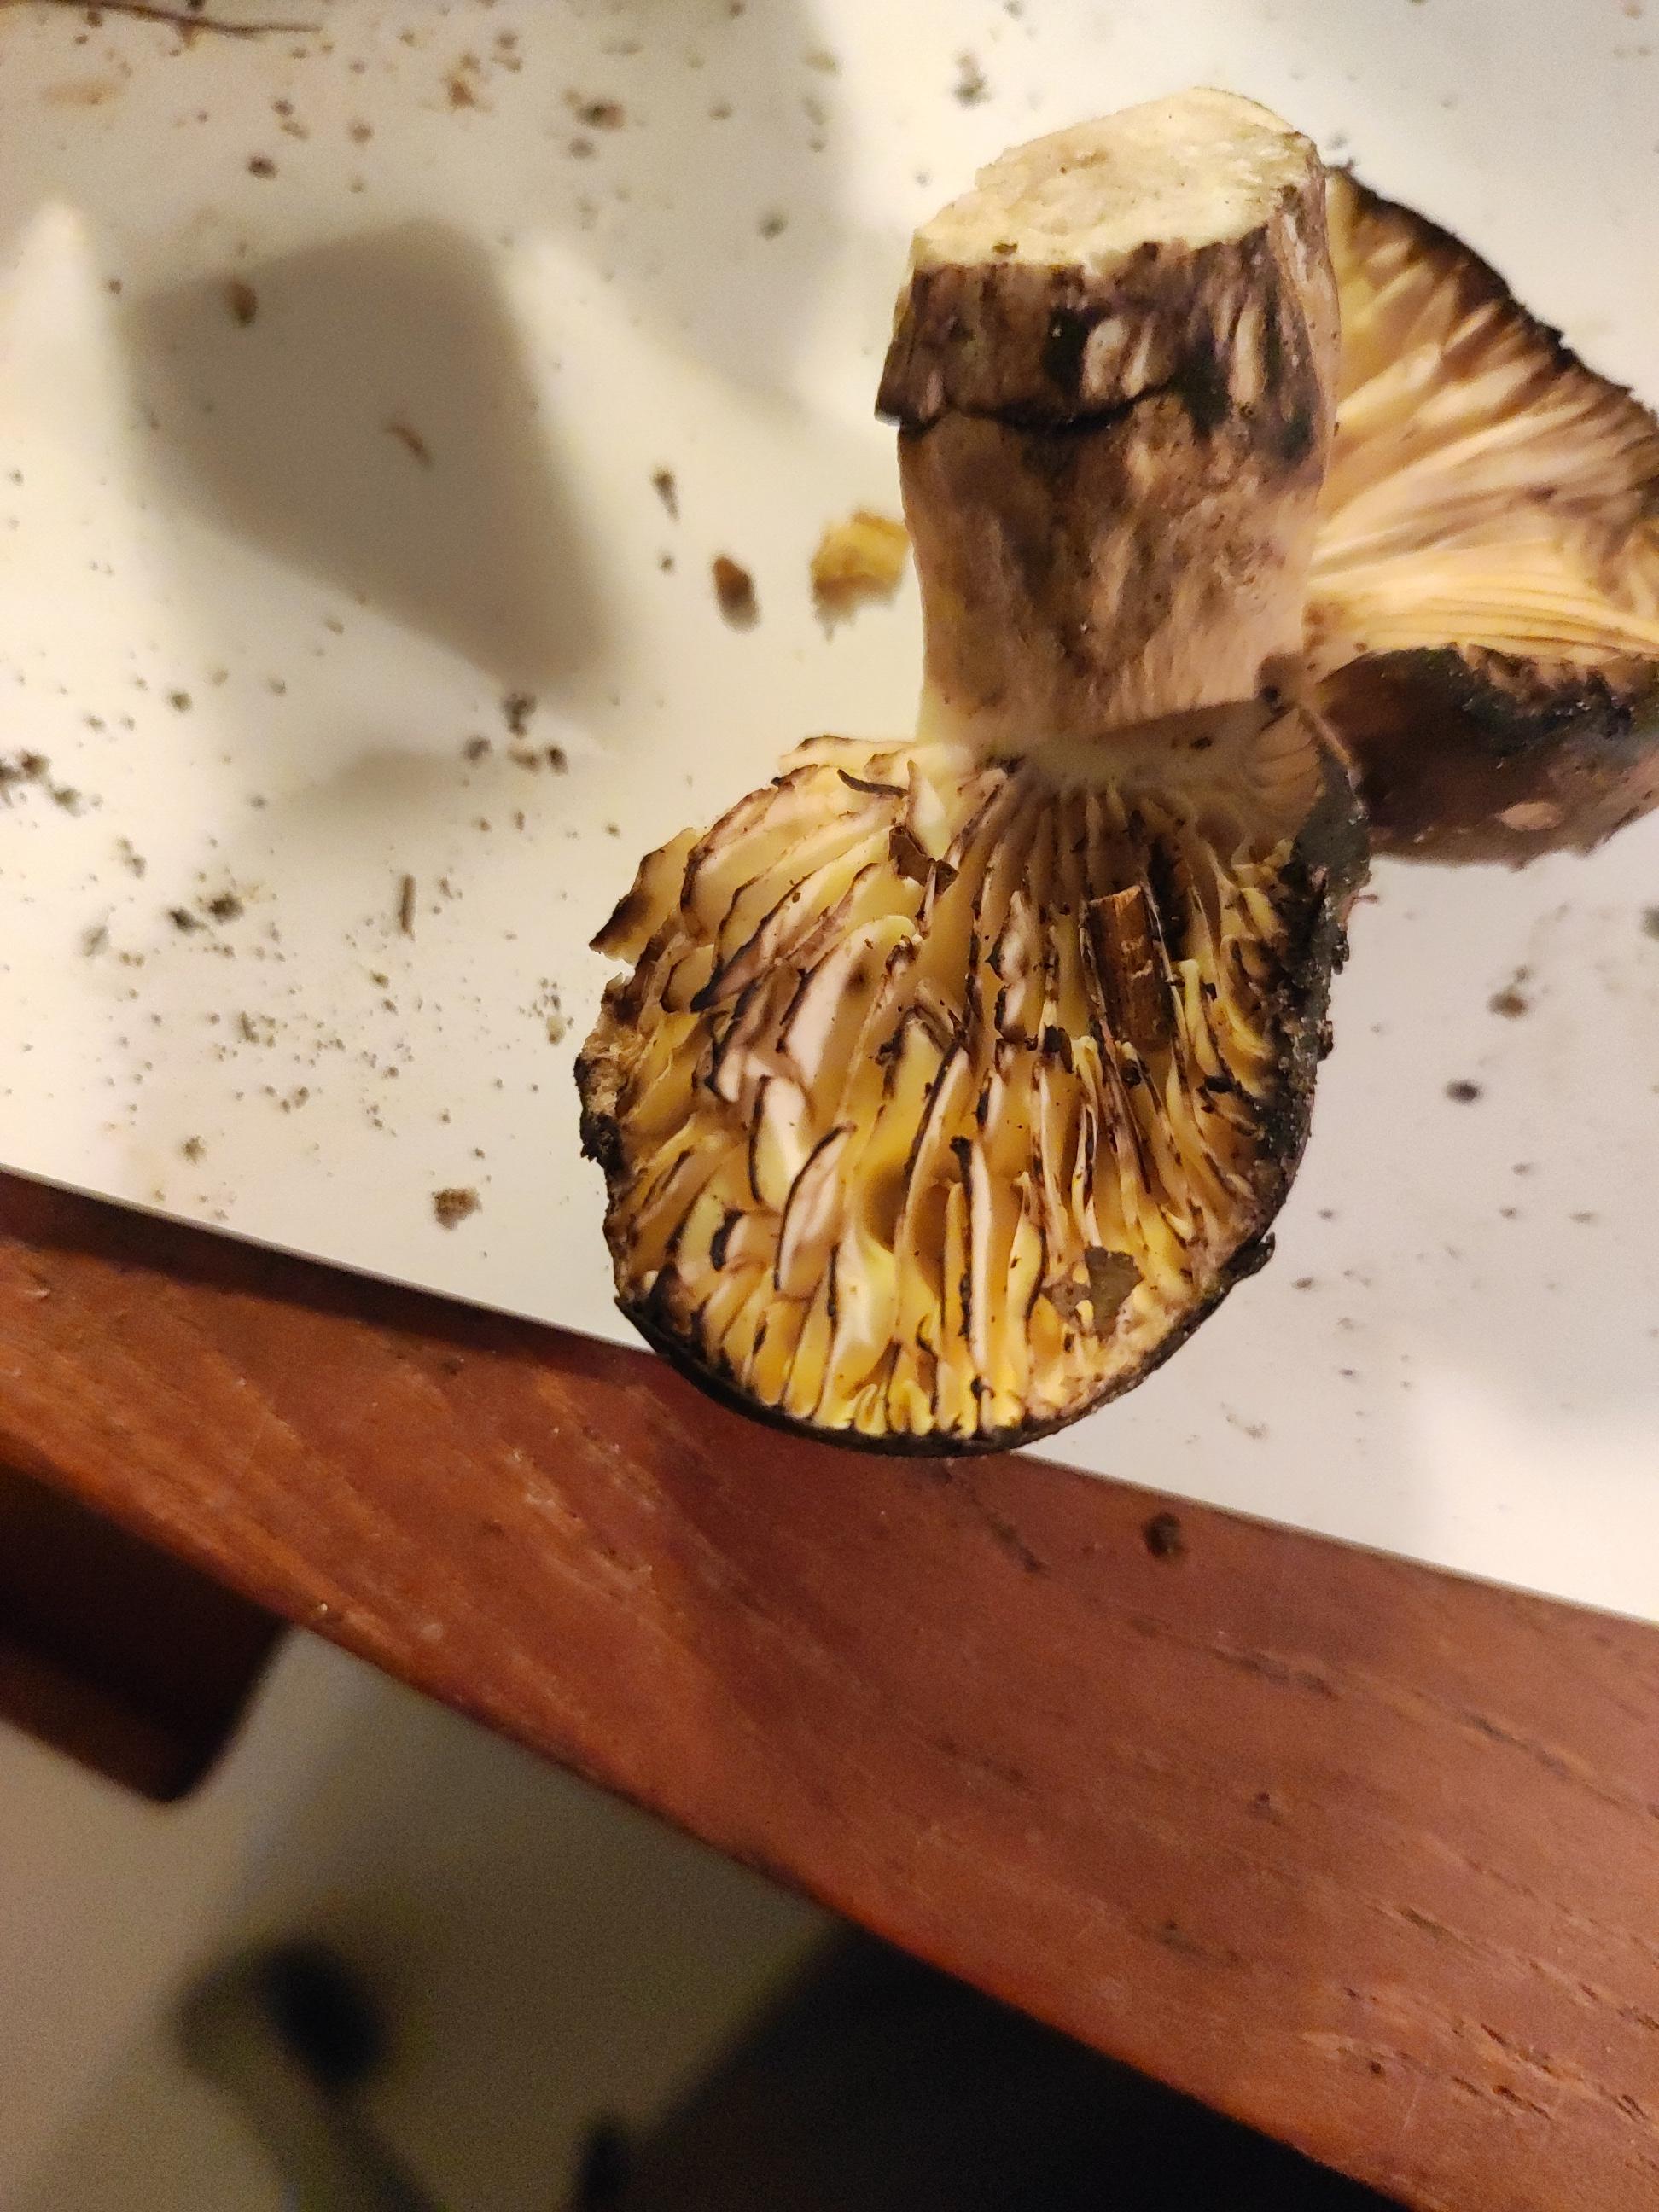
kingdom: Fungi
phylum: Basidiomycota
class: Agaricomycetes
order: Russulales
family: Russulaceae
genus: Russula
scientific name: Russula adusta
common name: sværtende skørhat
